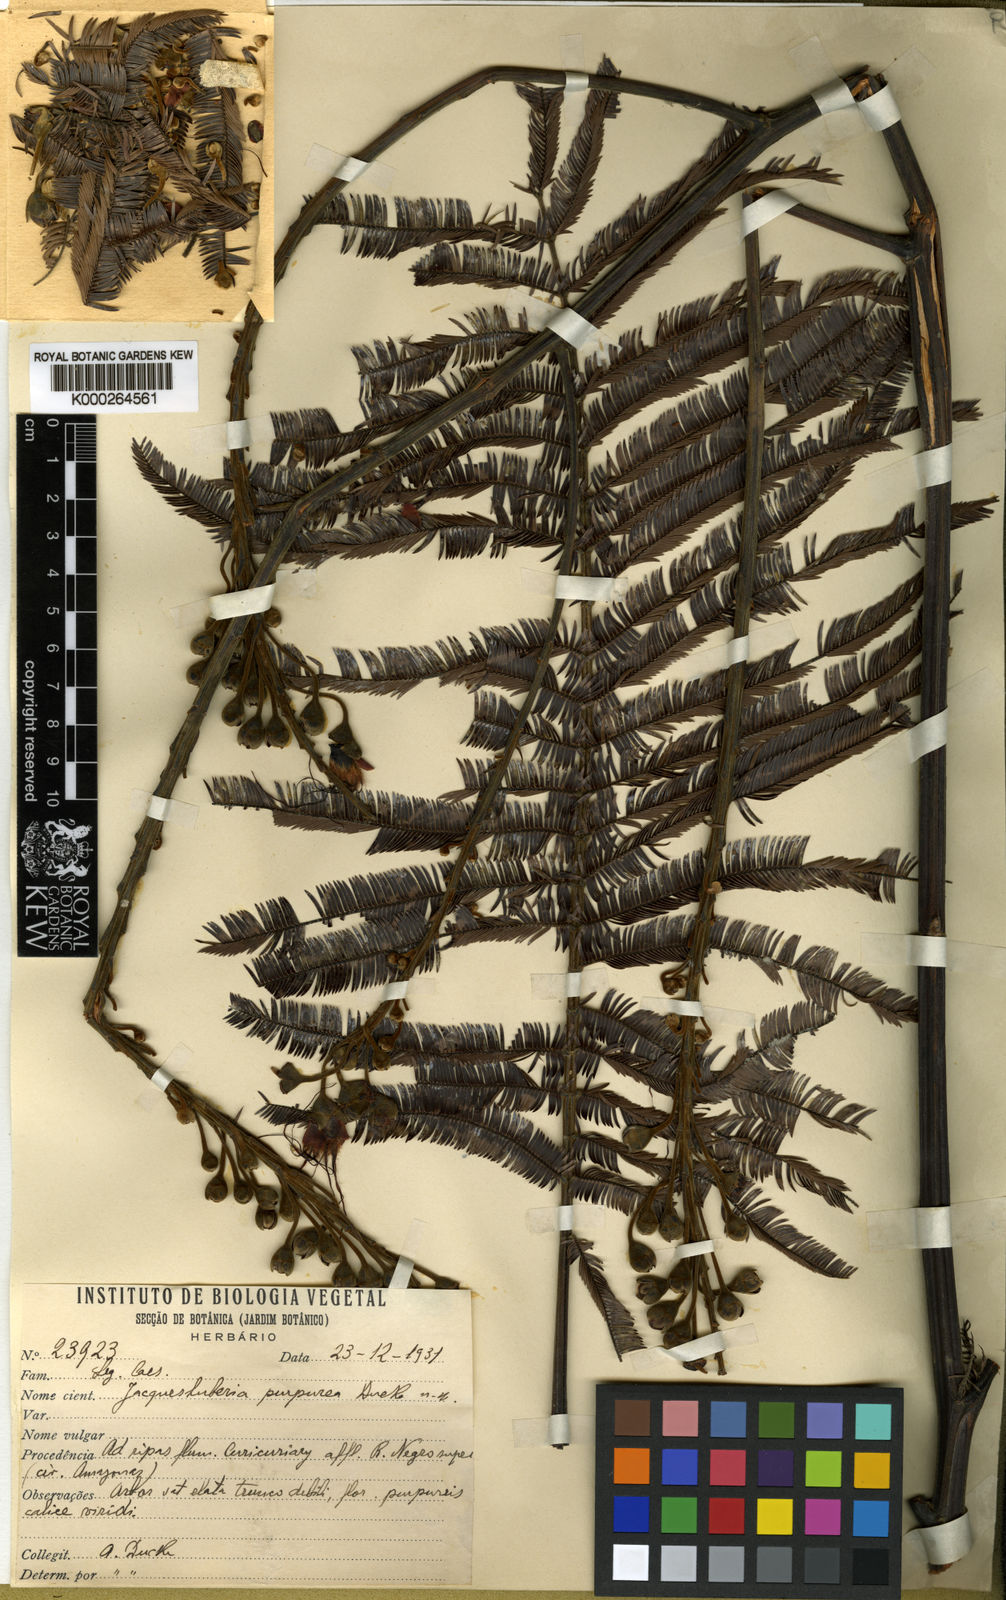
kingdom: Plantae
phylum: Tracheophyta
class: Magnoliopsida
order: Fabales
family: Fabaceae
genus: Jacqueshuberia
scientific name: Jacqueshuberia purpurea
